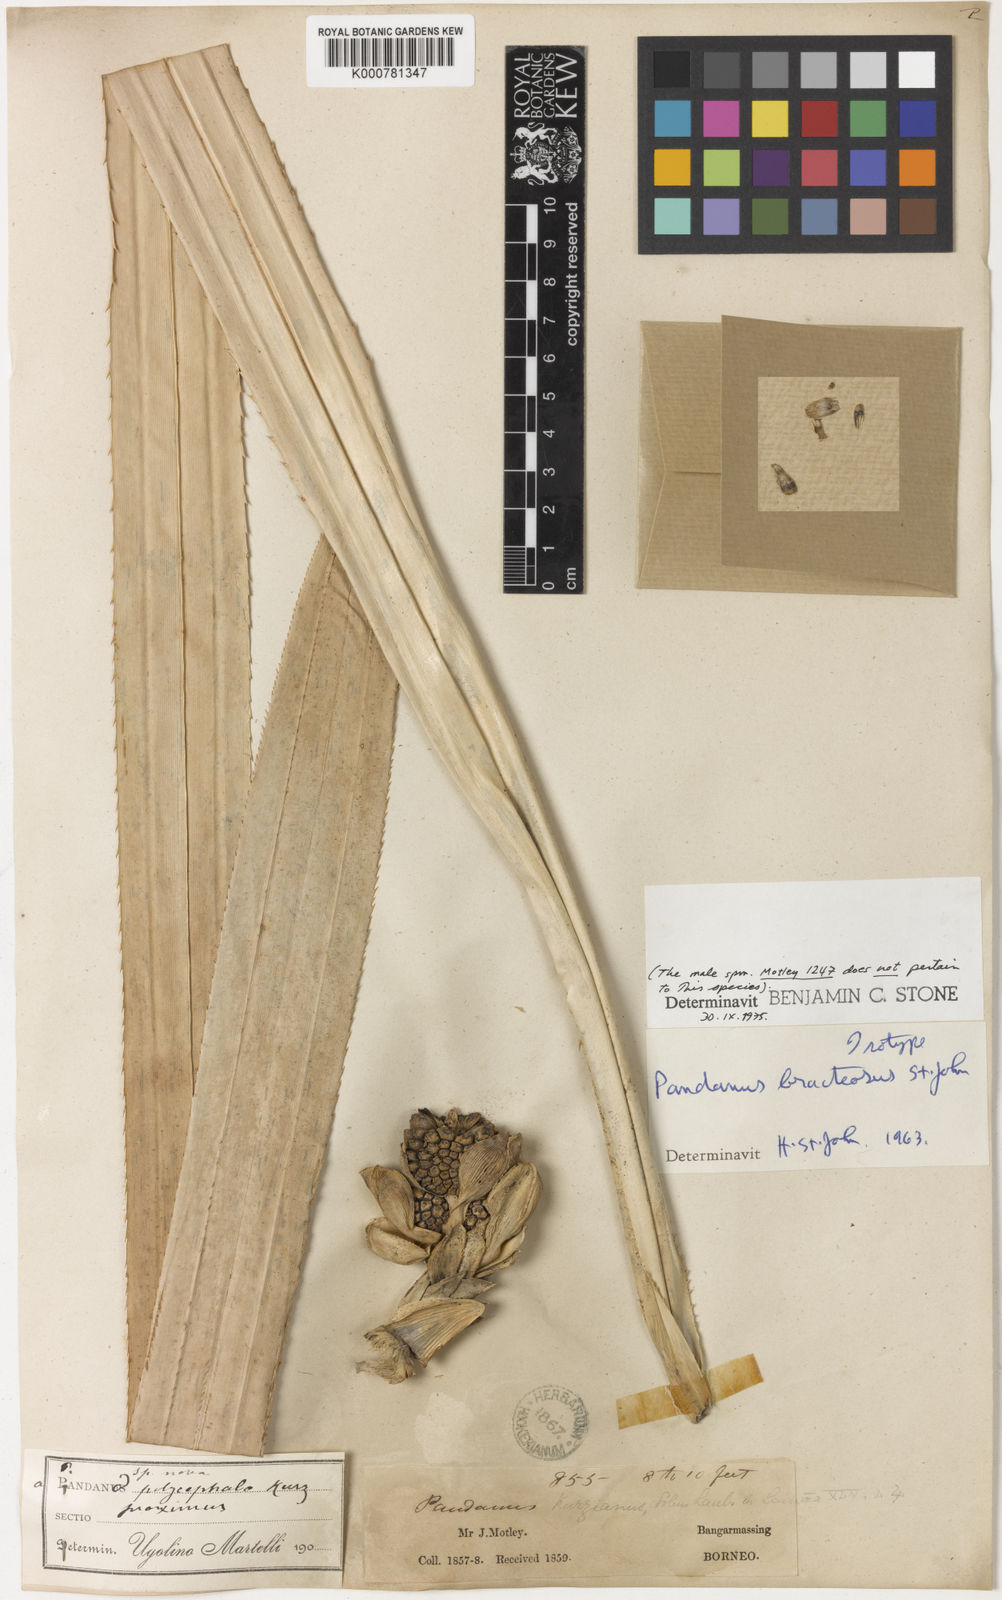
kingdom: Plantae
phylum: Tracheophyta
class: Liliopsida
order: Pandanales
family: Pandanaceae
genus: Pandanus
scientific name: Pandanus bracteosus
